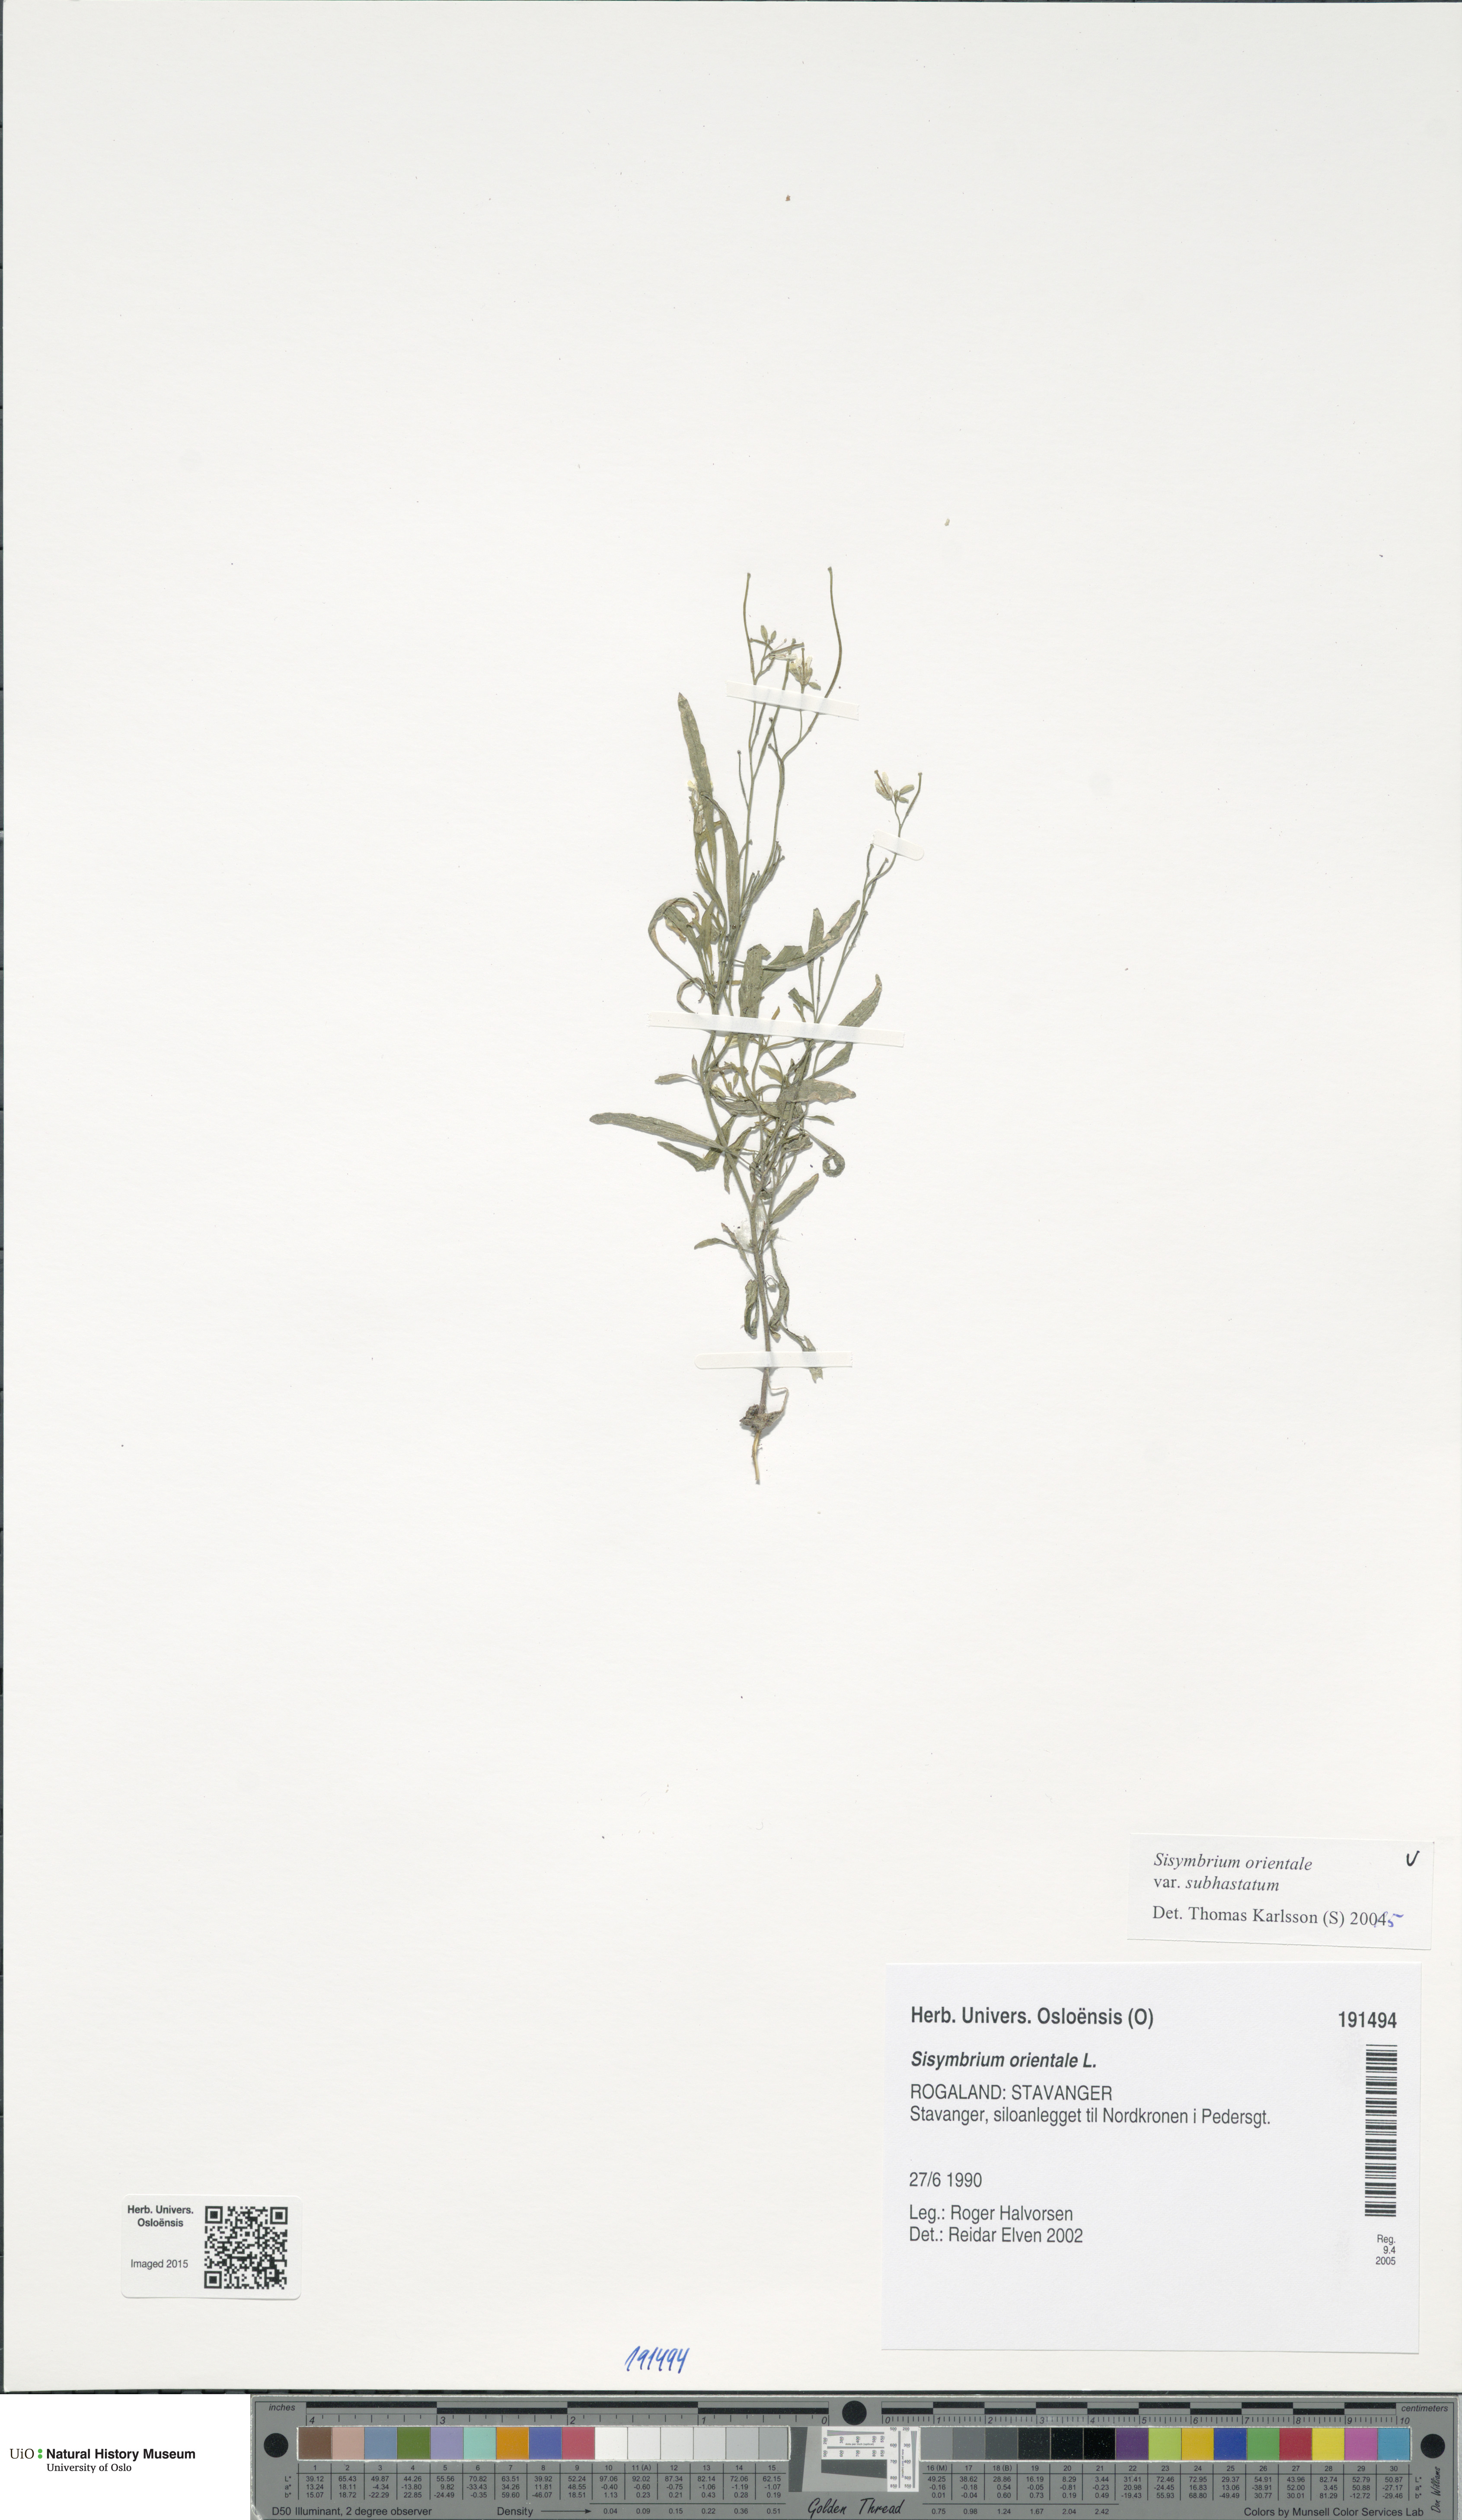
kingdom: Plantae
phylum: Tracheophyta
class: Magnoliopsida
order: Brassicales
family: Brassicaceae
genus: Sisymbrium
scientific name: Sisymbrium orientale
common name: Eastern rocket
